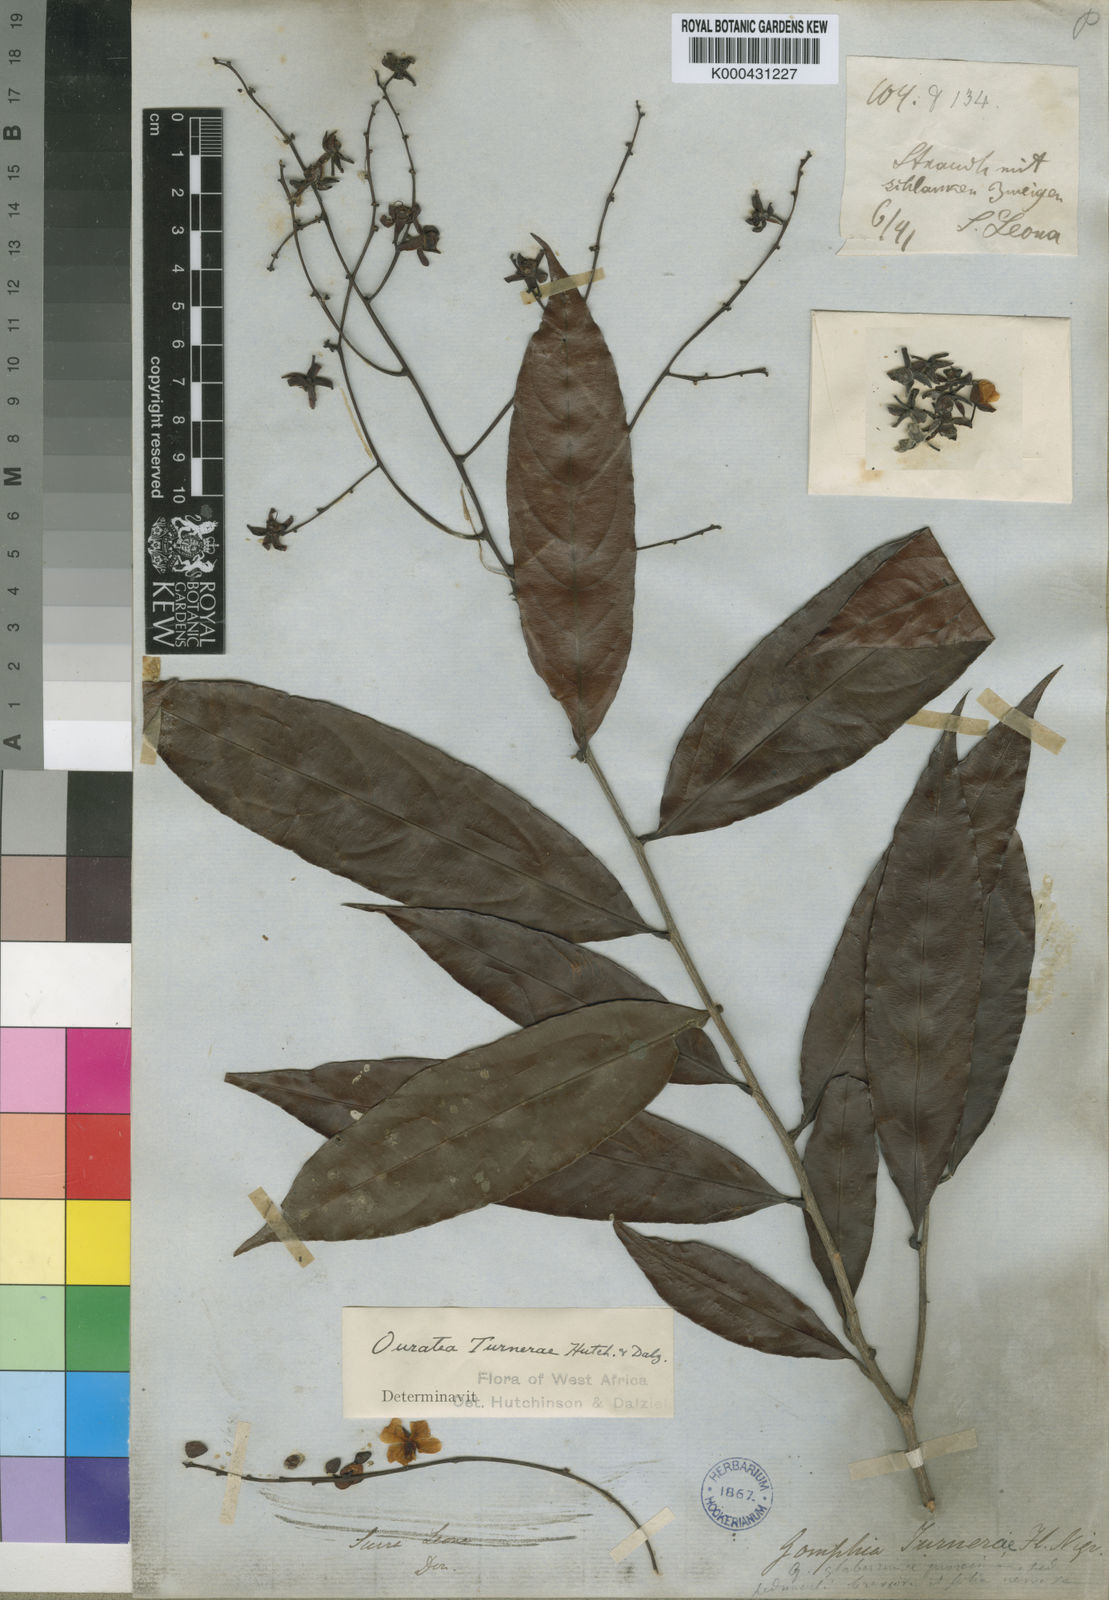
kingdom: Plantae
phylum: Tracheophyta
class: Magnoliopsida
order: Malpighiales
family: Ochnaceae
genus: Campylospermum
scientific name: Campylospermum reticulatum
